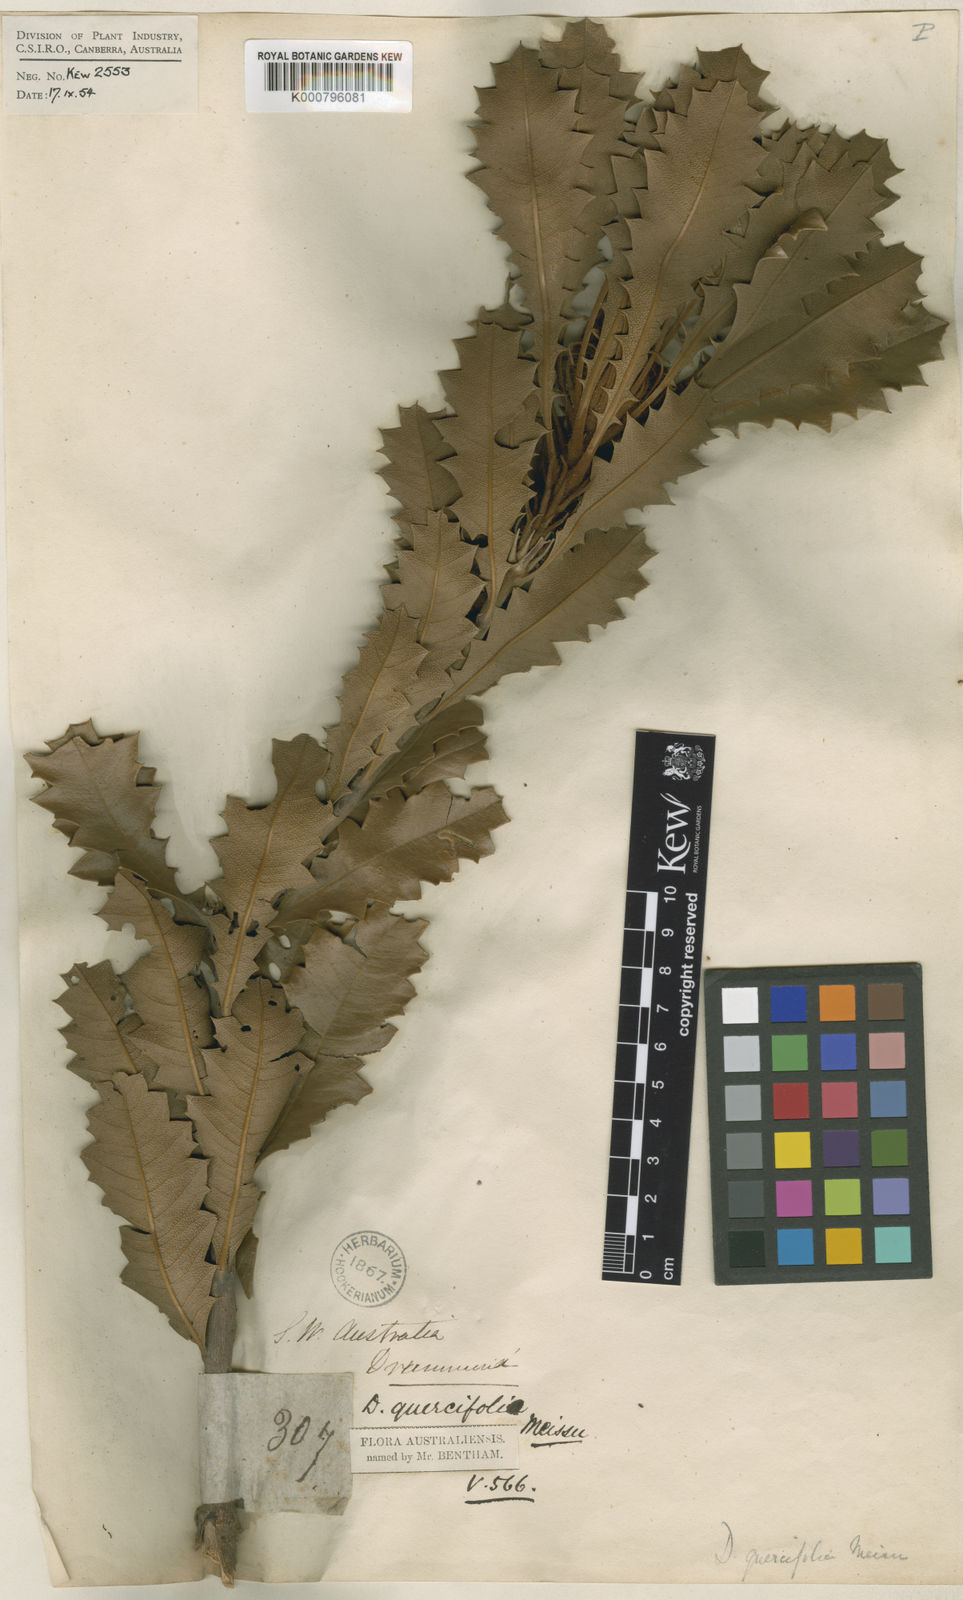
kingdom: Plantae
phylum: Tracheophyta
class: Magnoliopsida
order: Proteales
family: Proteaceae
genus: Banksia
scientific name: Banksia heliantha
